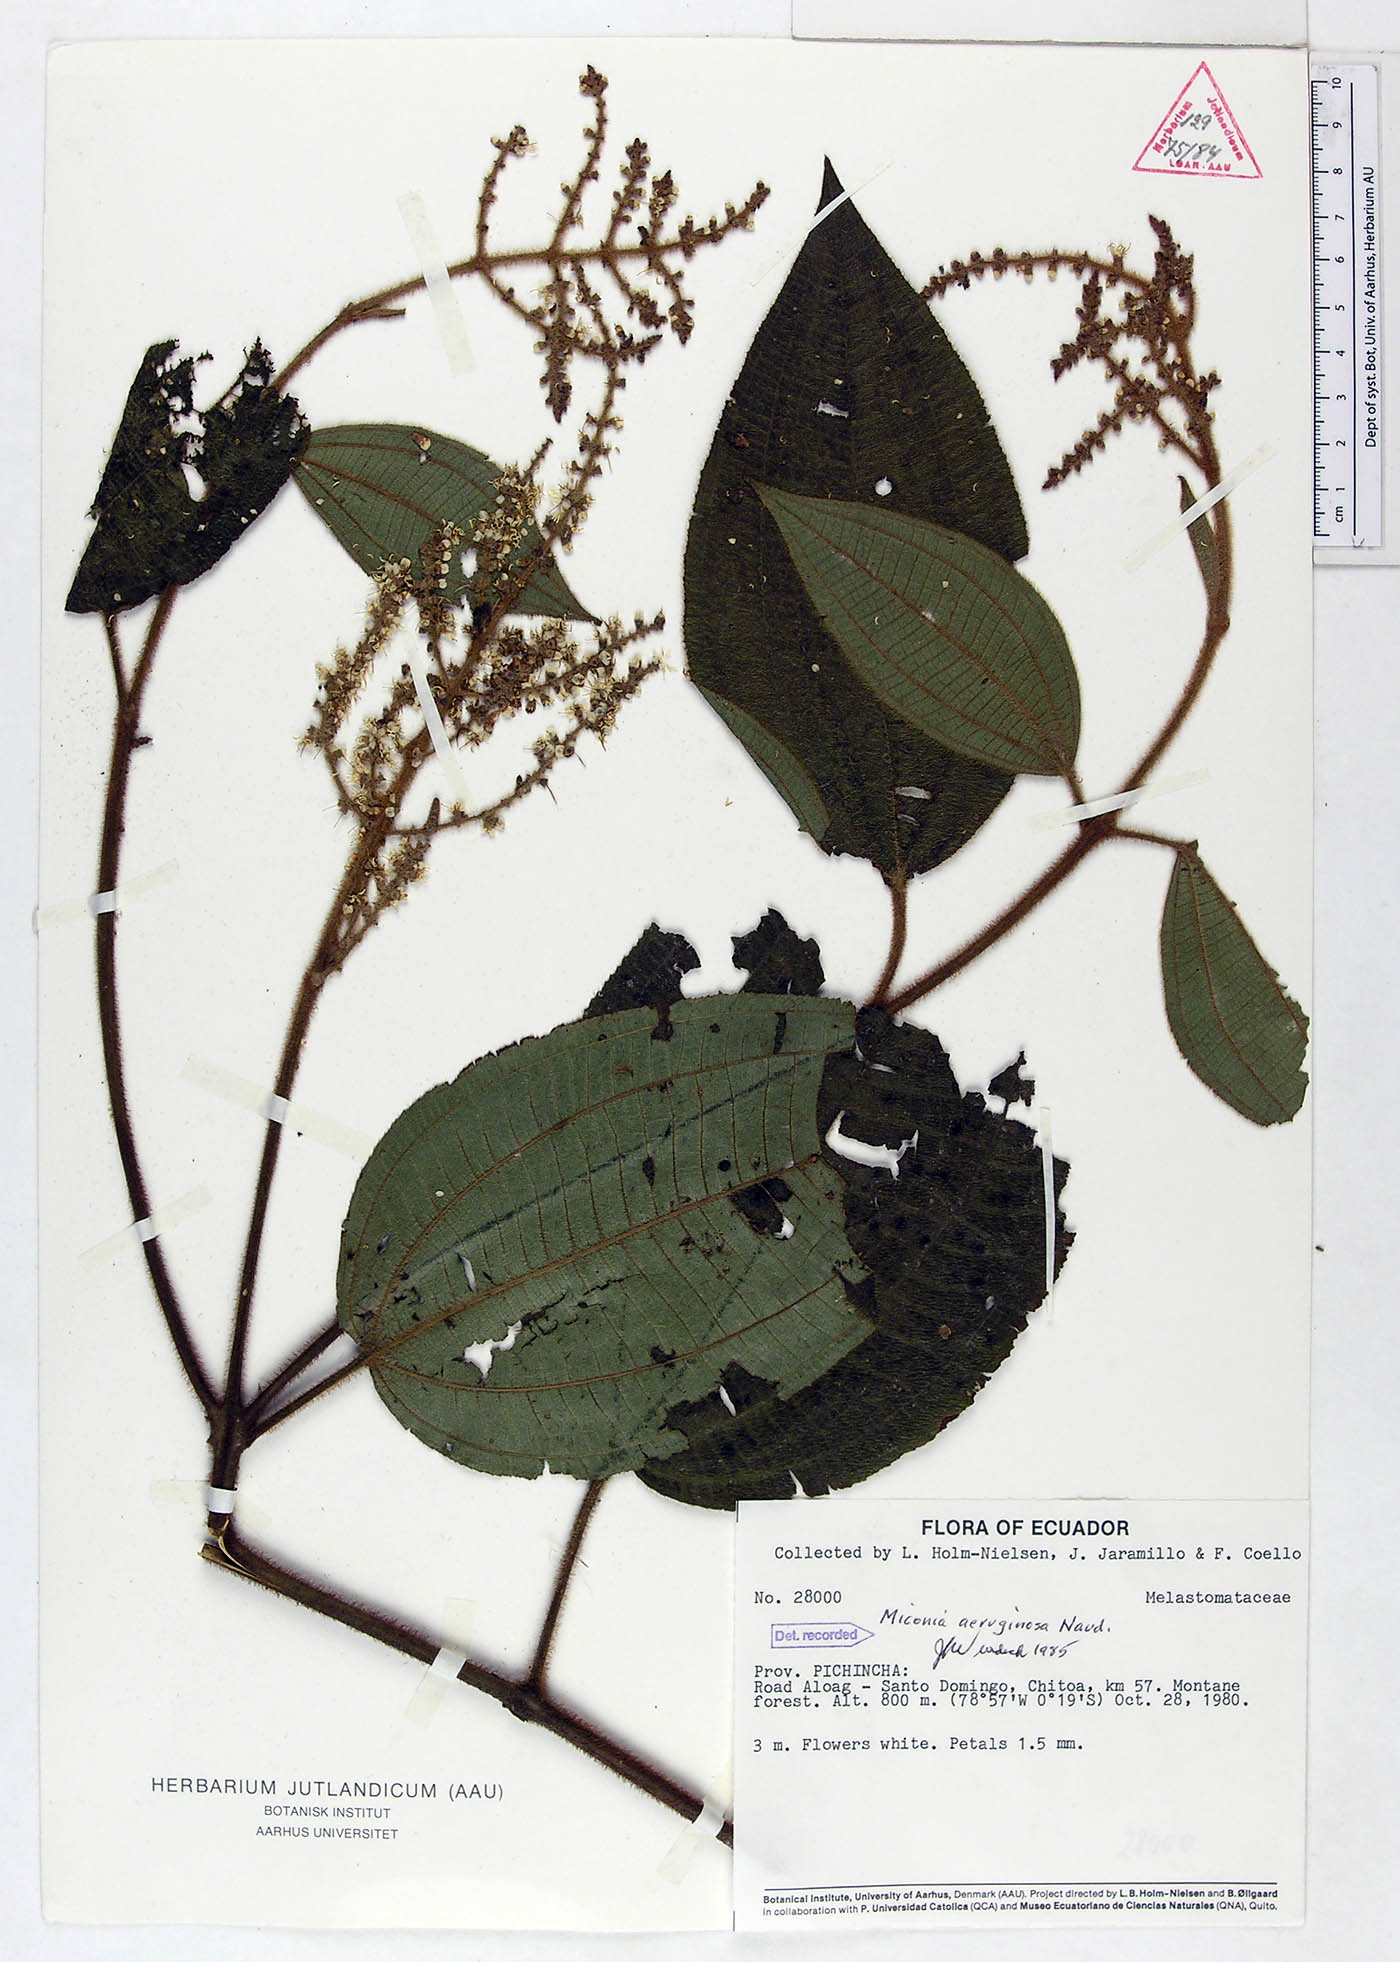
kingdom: Plantae
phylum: Tracheophyta
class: Magnoliopsida
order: Myrtales
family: Melastomataceae
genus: Miconia
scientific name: Miconia aeruginosa
